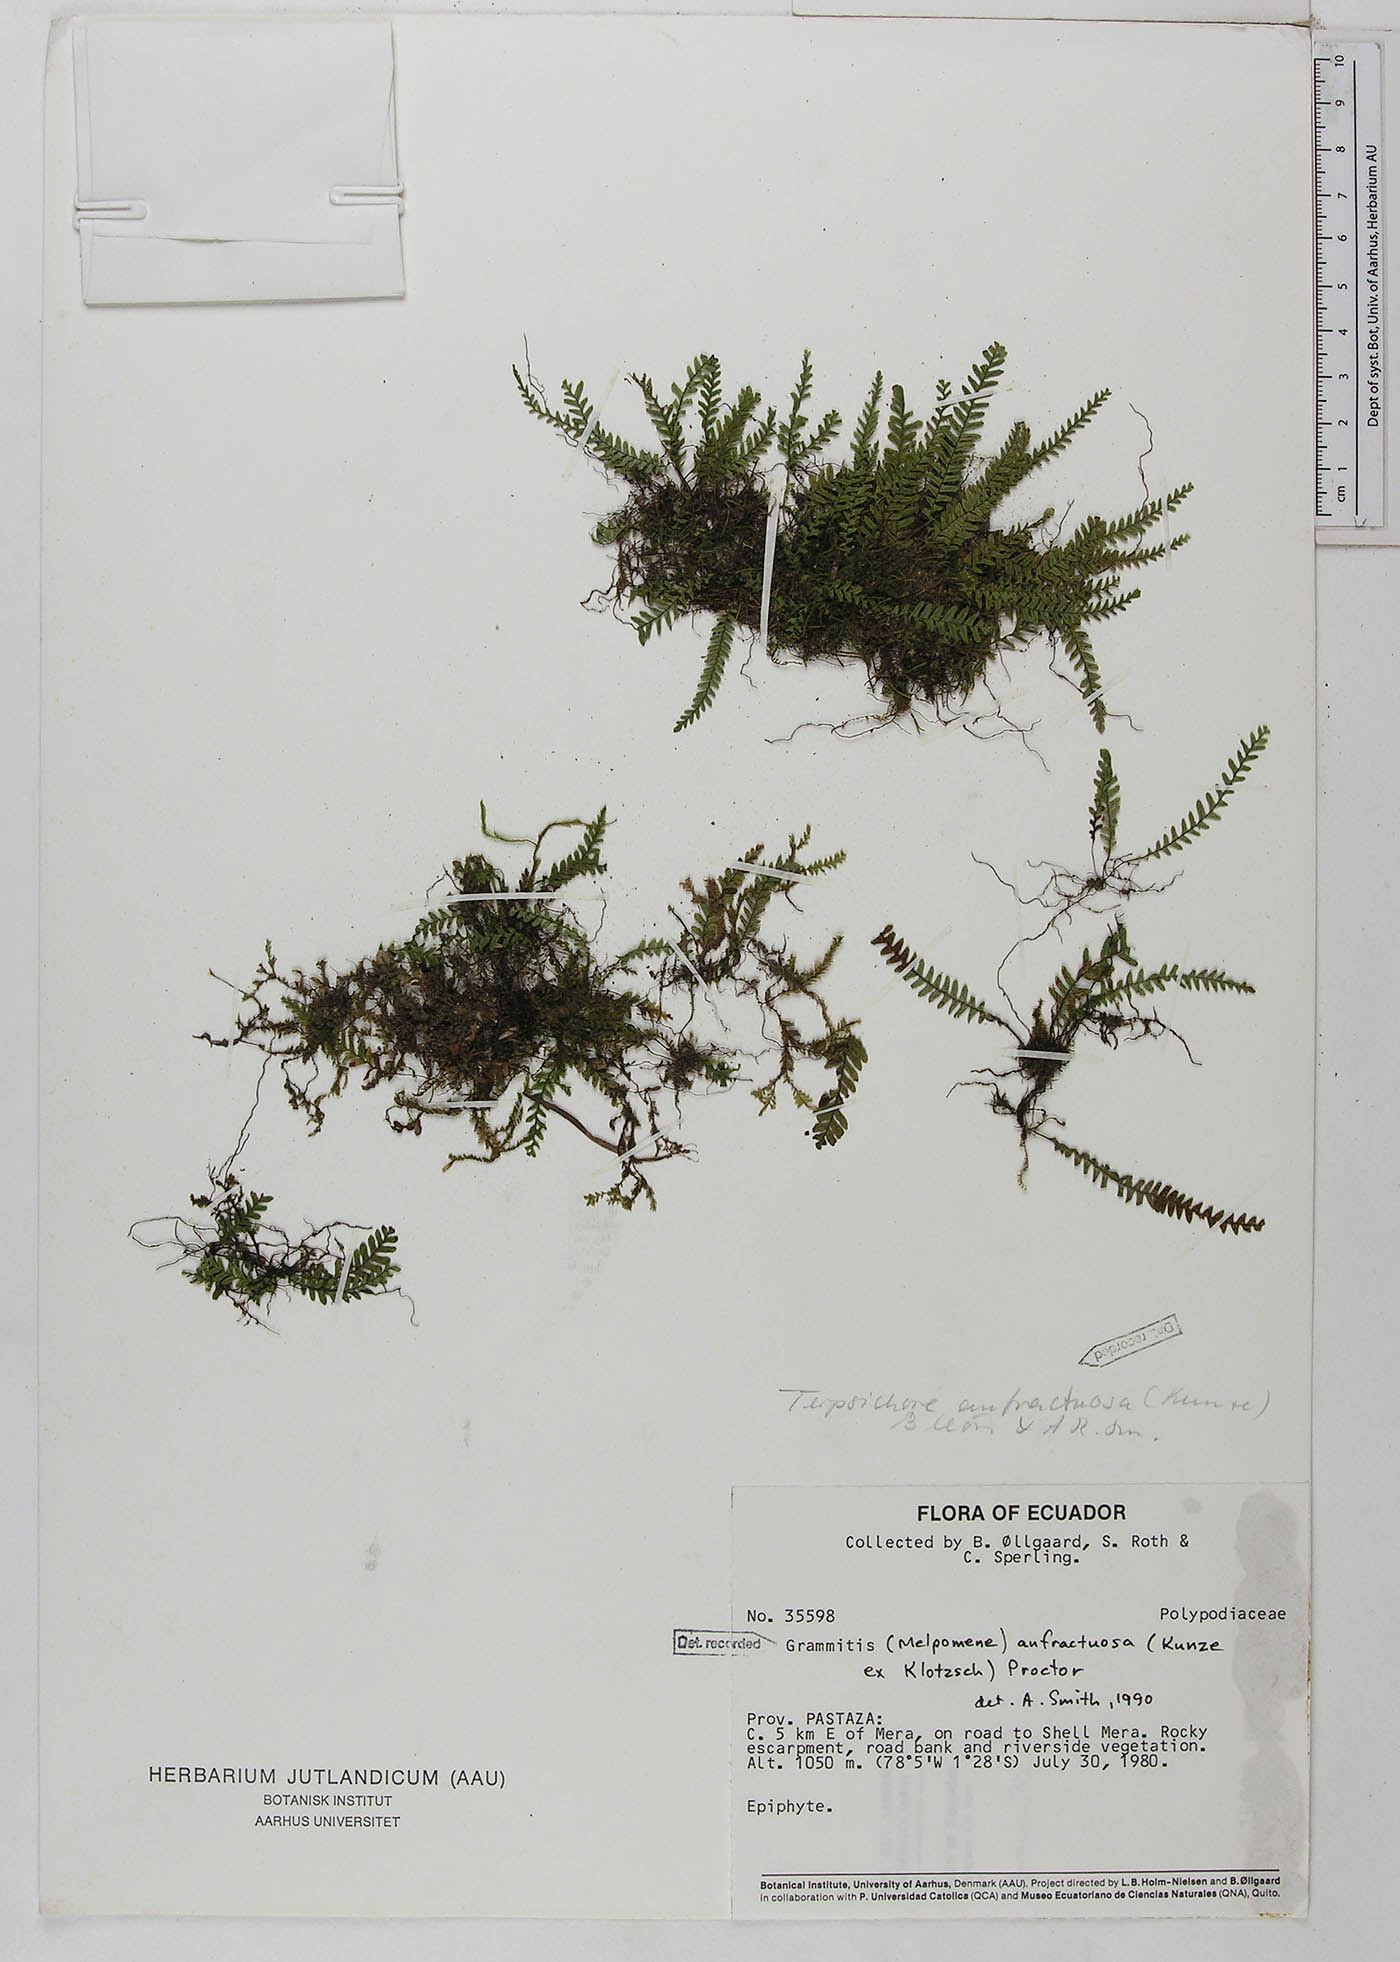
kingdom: Plantae
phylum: Tracheophyta
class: Polypodiopsida
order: Polypodiales
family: Polypodiaceae
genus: Ascogrammitis
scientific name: Ascogrammitis anfractuosa
